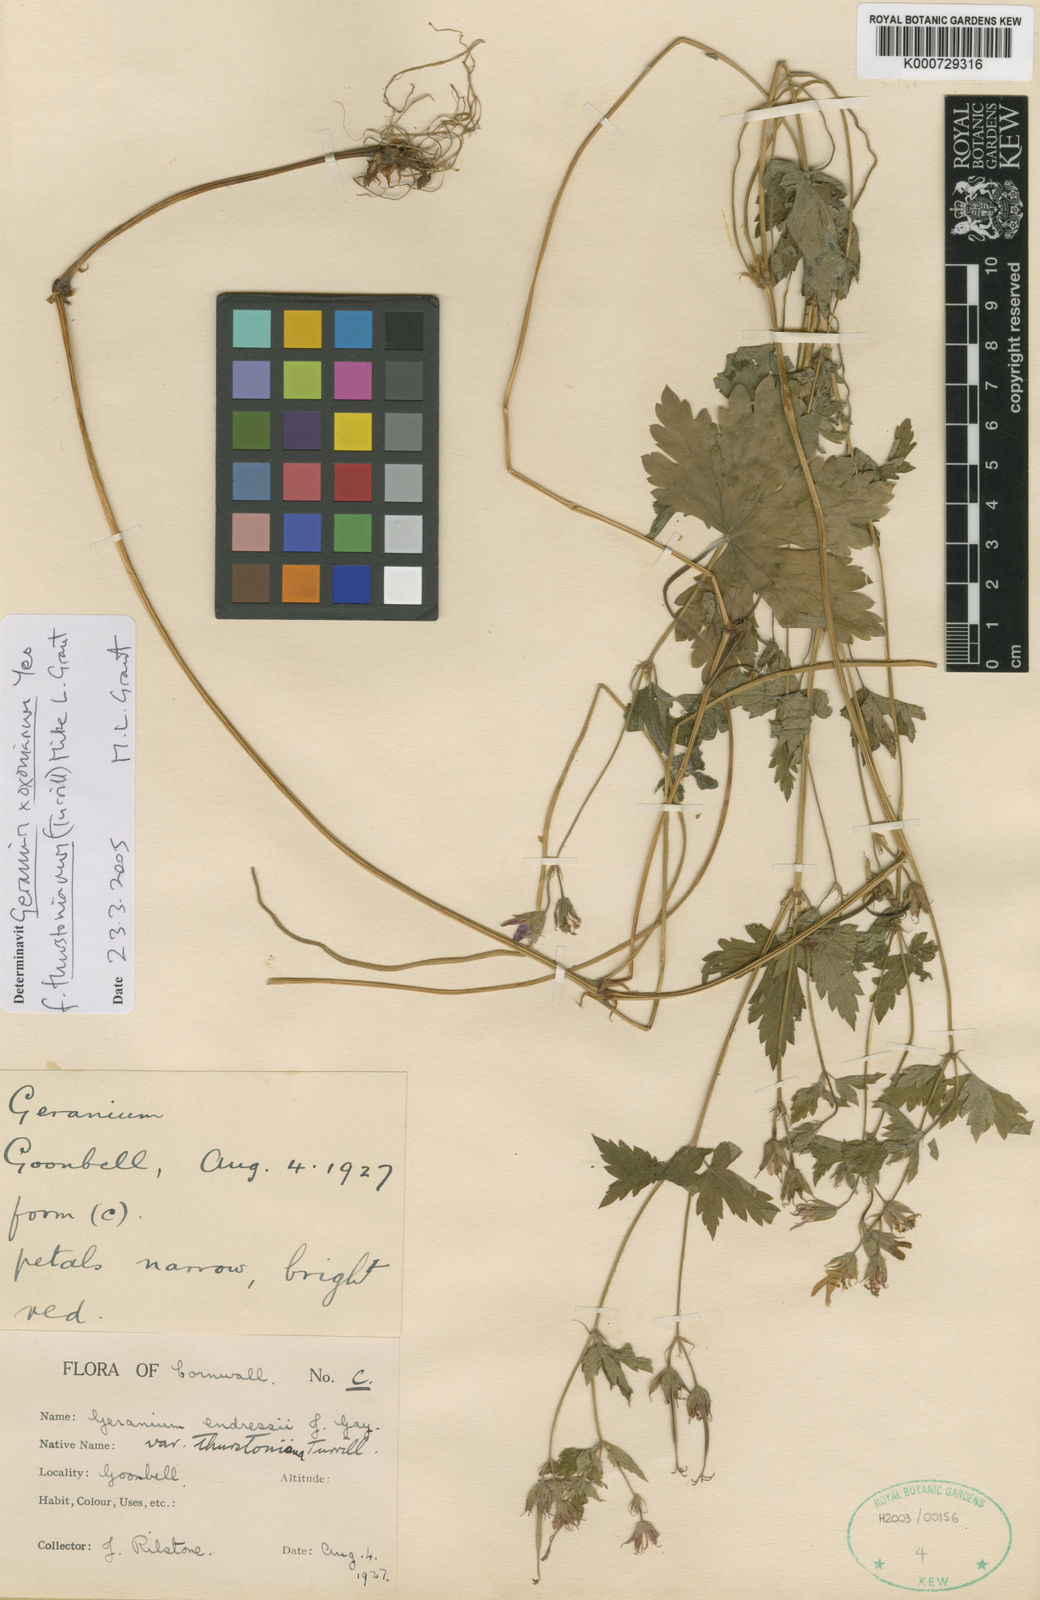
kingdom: Plantae
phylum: Tracheophyta
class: Magnoliopsida
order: Geraniales
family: Geraniaceae
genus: Geranium
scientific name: Geranium oxonianum
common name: Druce's crane's-bill
